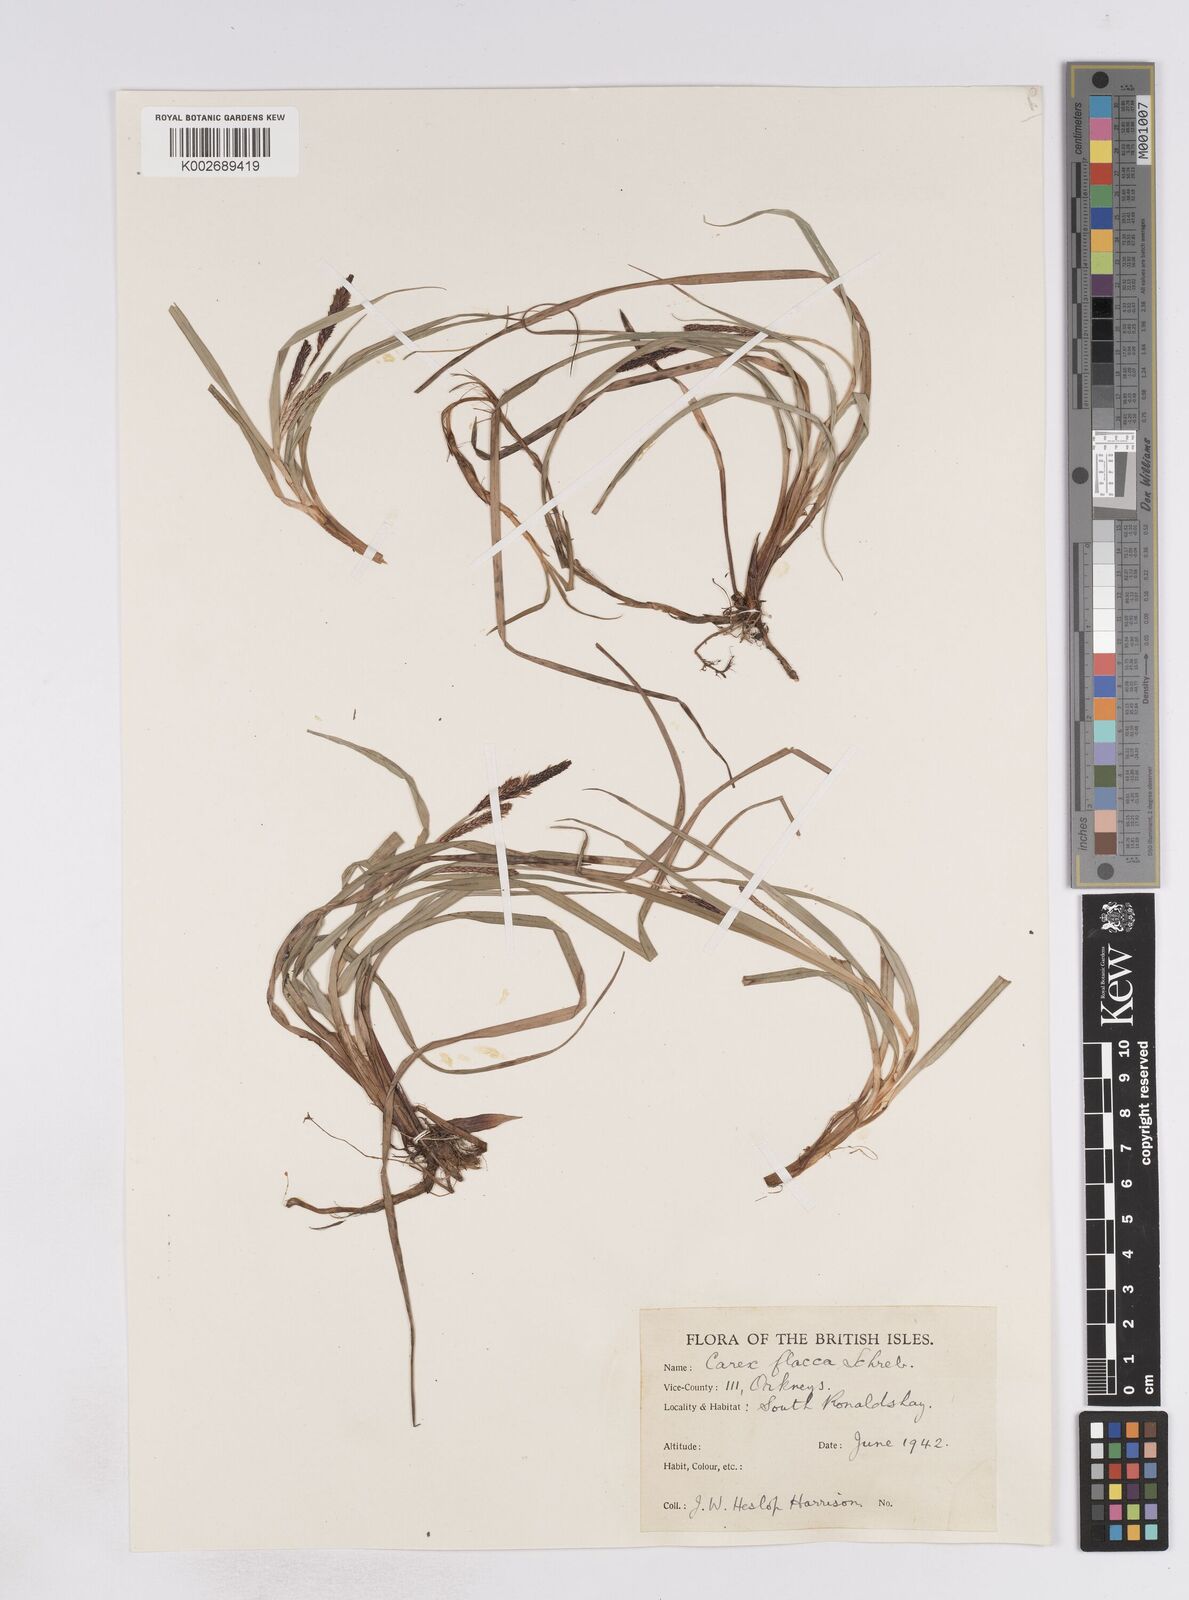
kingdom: Plantae
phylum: Tracheophyta
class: Liliopsida
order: Poales
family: Cyperaceae
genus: Carex
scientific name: Carex flacca
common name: Glaucous sedge
